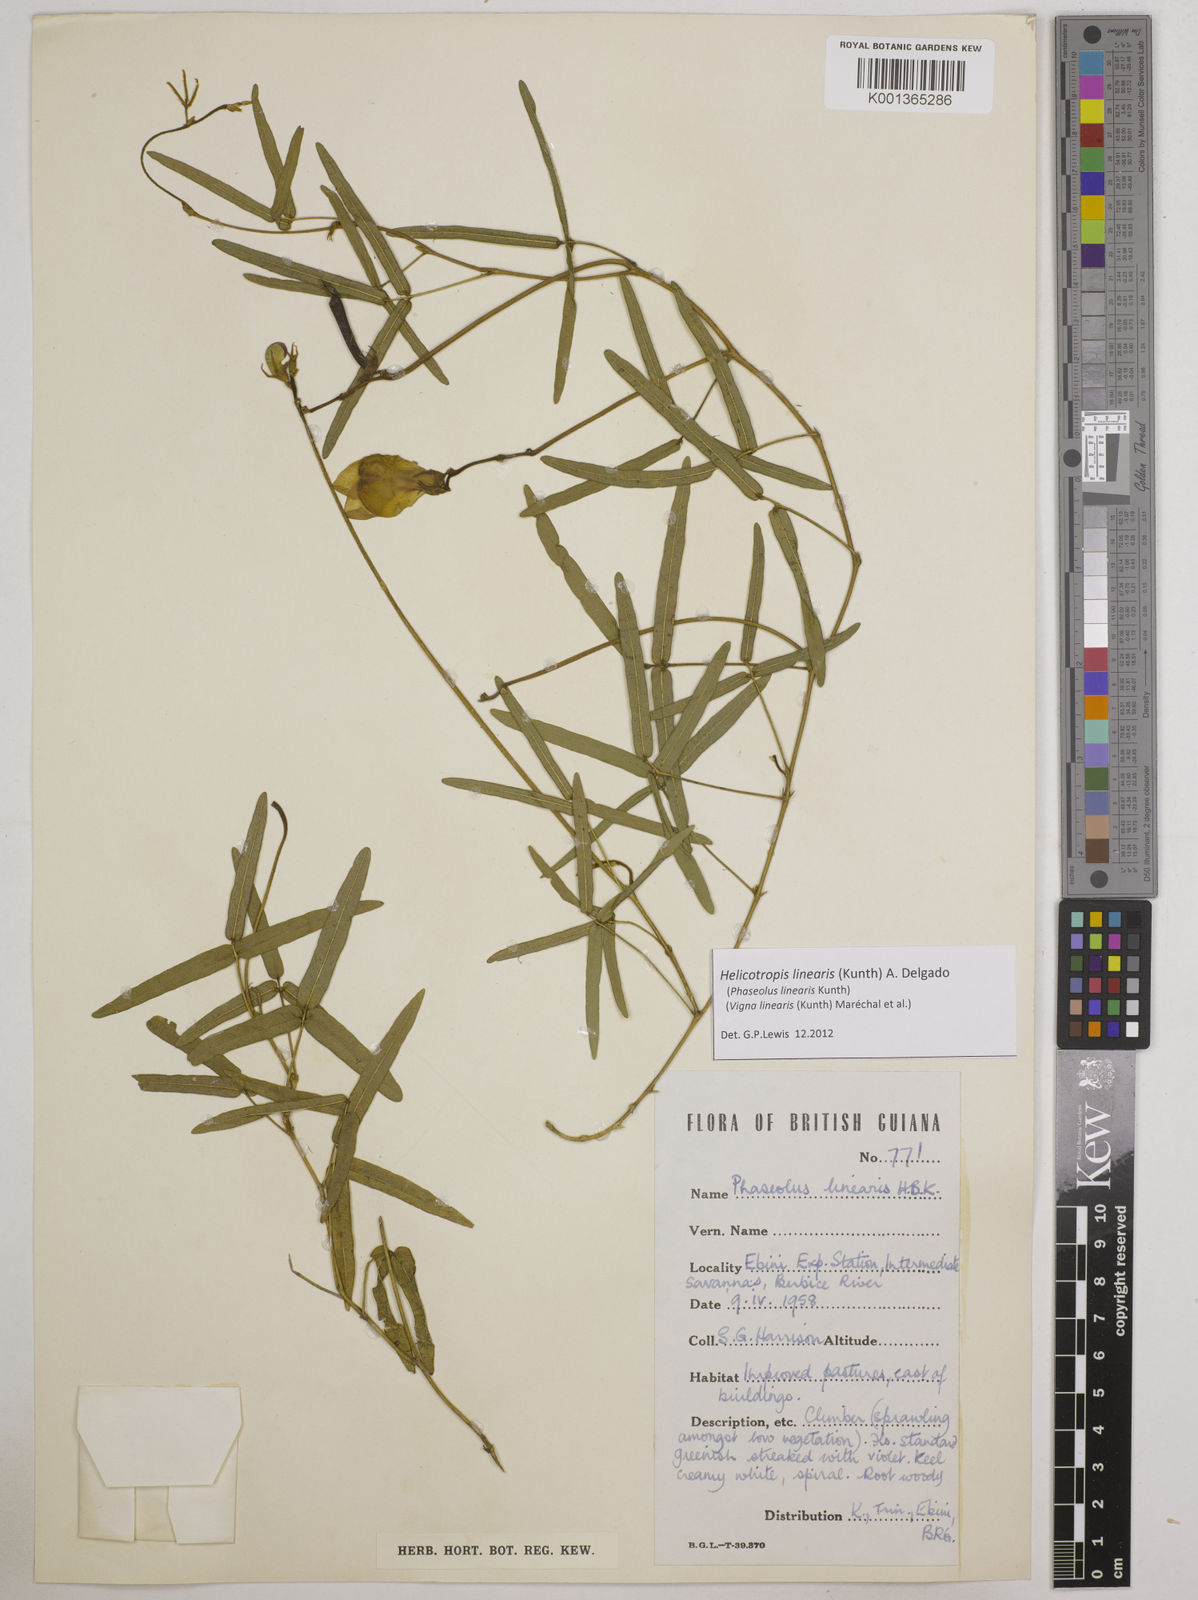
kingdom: Plantae
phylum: Tracheophyta
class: Magnoliopsida
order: Fabales
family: Fabaceae
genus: Helicotropis
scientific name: Helicotropis linearis
